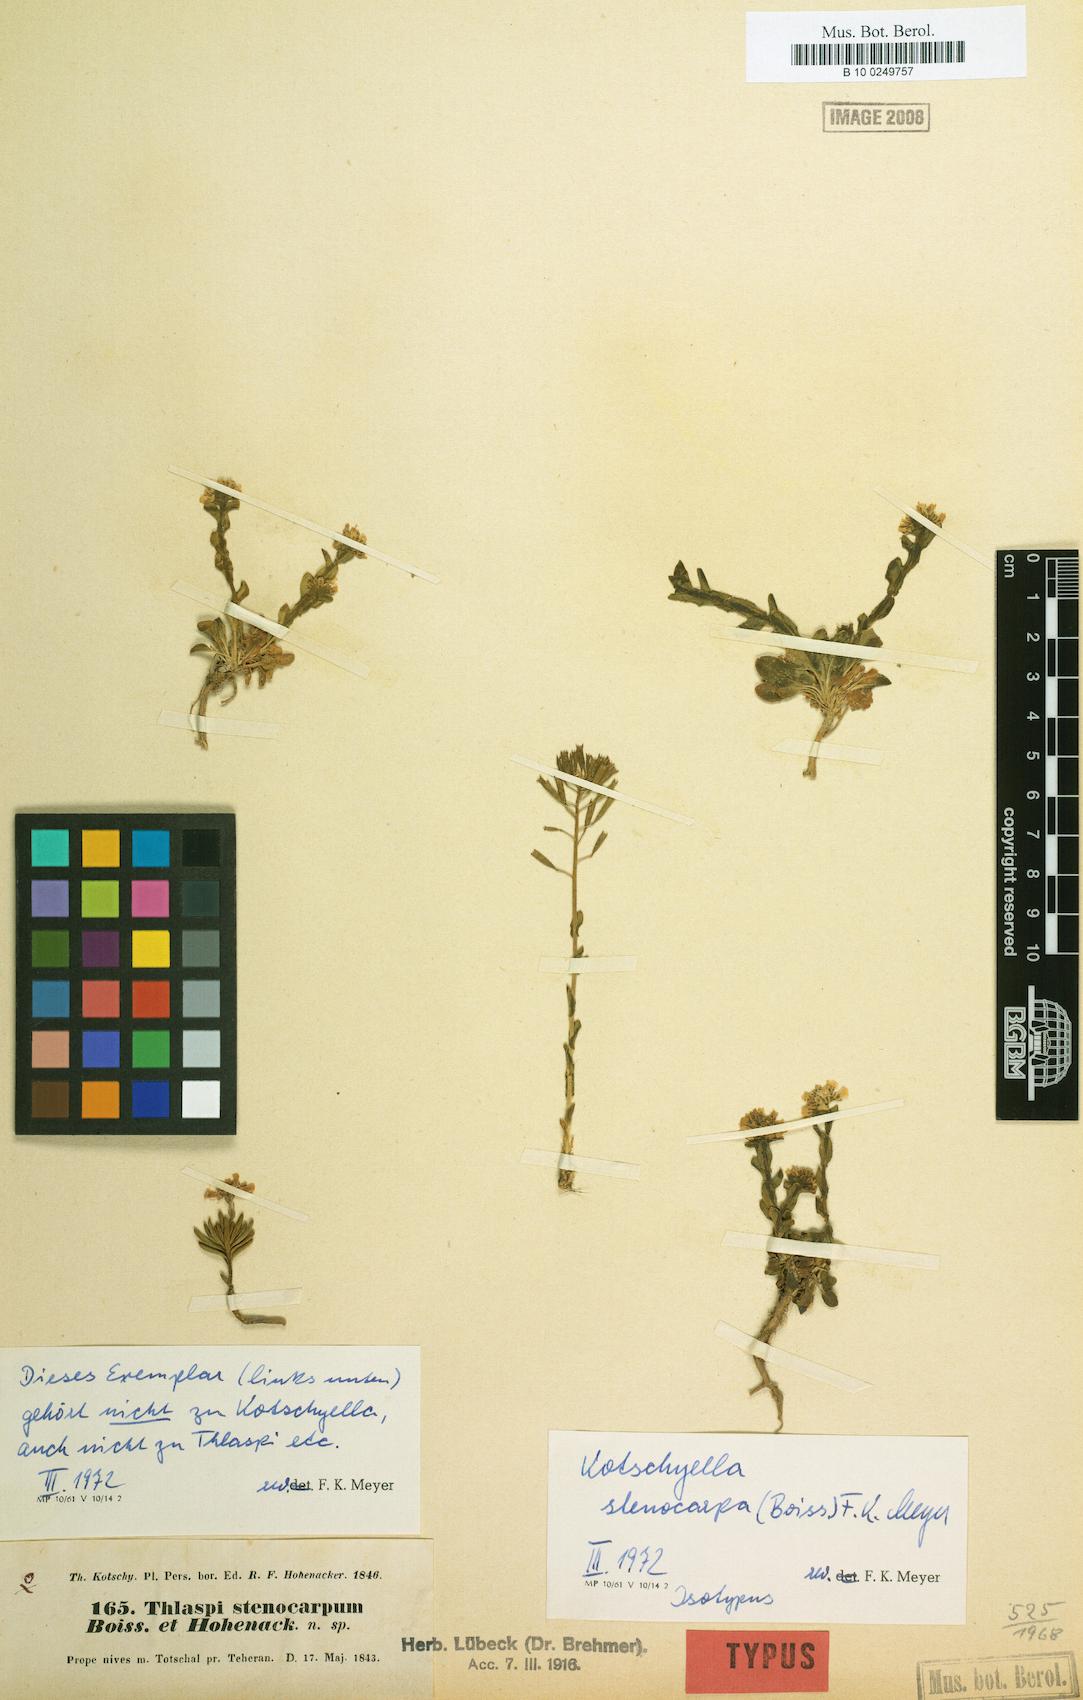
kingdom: Plantae
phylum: Tracheophyta
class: Magnoliopsida
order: Brassicales
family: Brassicaceae
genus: Noccaea
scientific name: Noccaea stenocarpa
